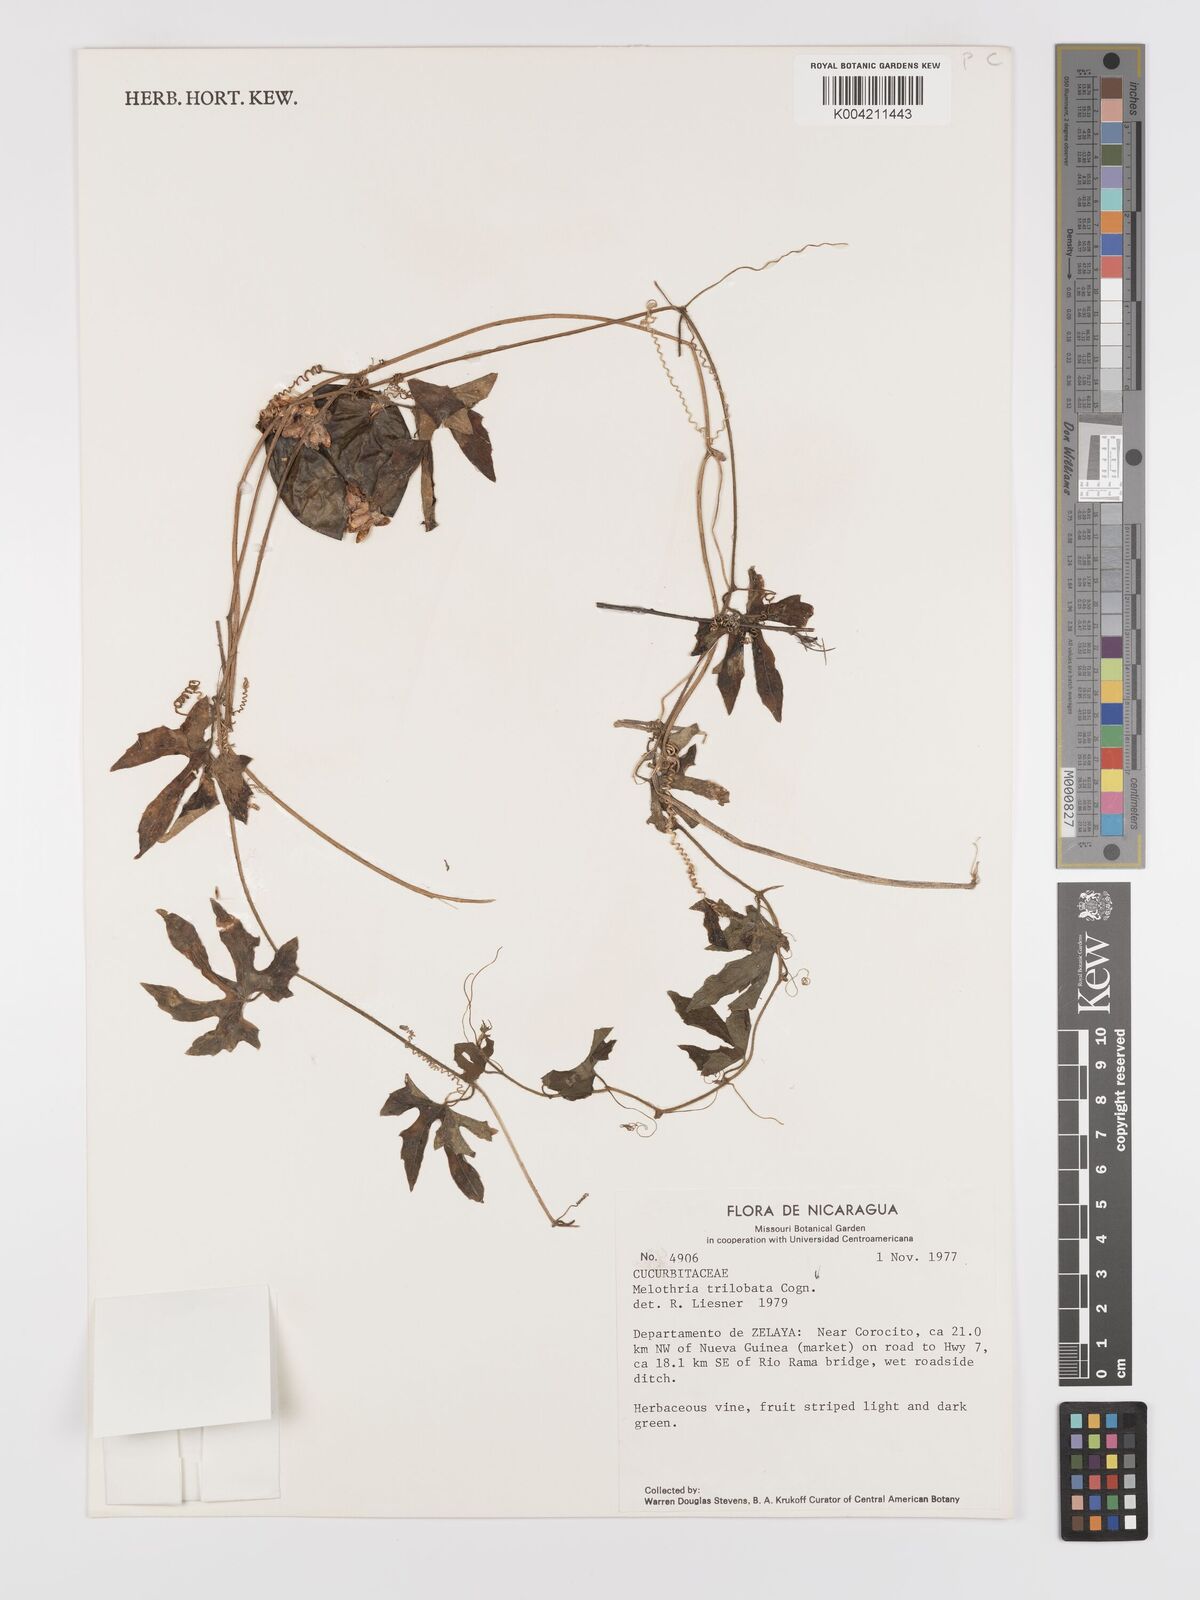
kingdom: Plantae
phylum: Tracheophyta
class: Magnoliopsida
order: Cucurbitales
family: Cucurbitaceae
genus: Melothria
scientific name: Melothria trilobata
